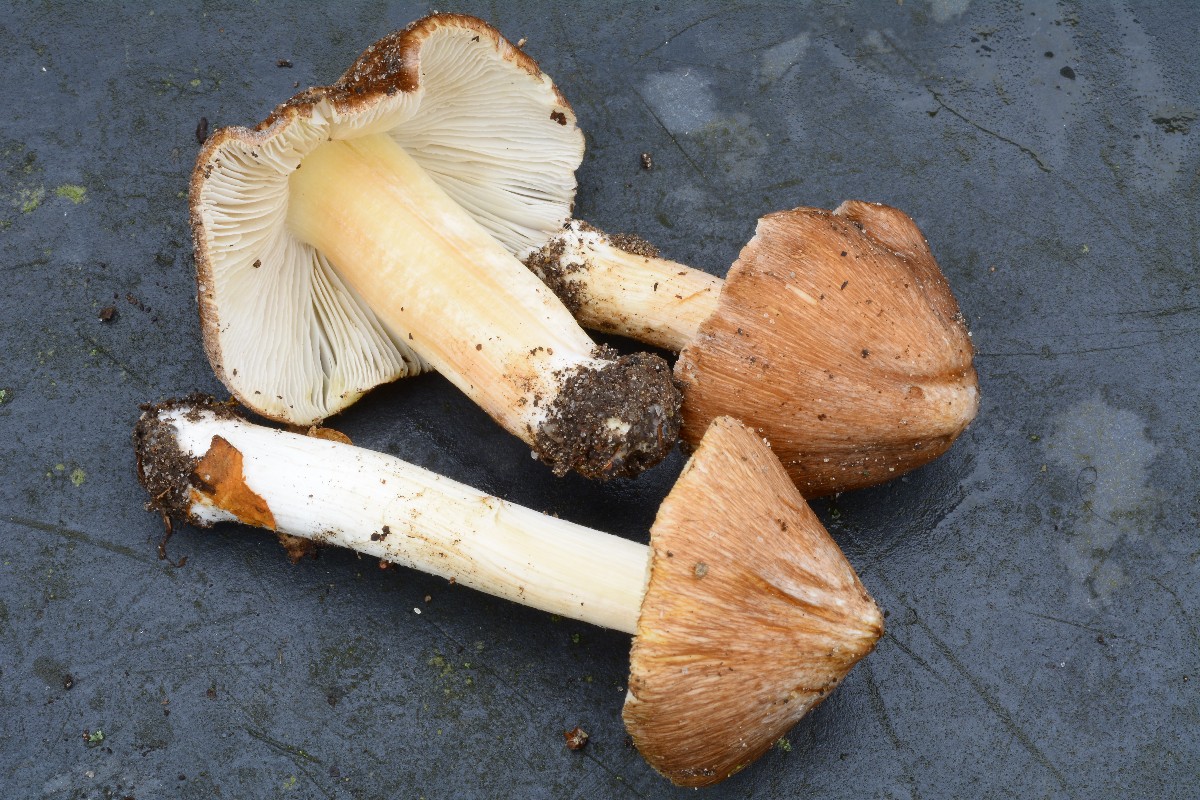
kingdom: Fungi
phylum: Basidiomycota
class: Agaricomycetes
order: Agaricales
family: Inocybaceae
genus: Inosperma
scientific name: Inosperma fulvum
